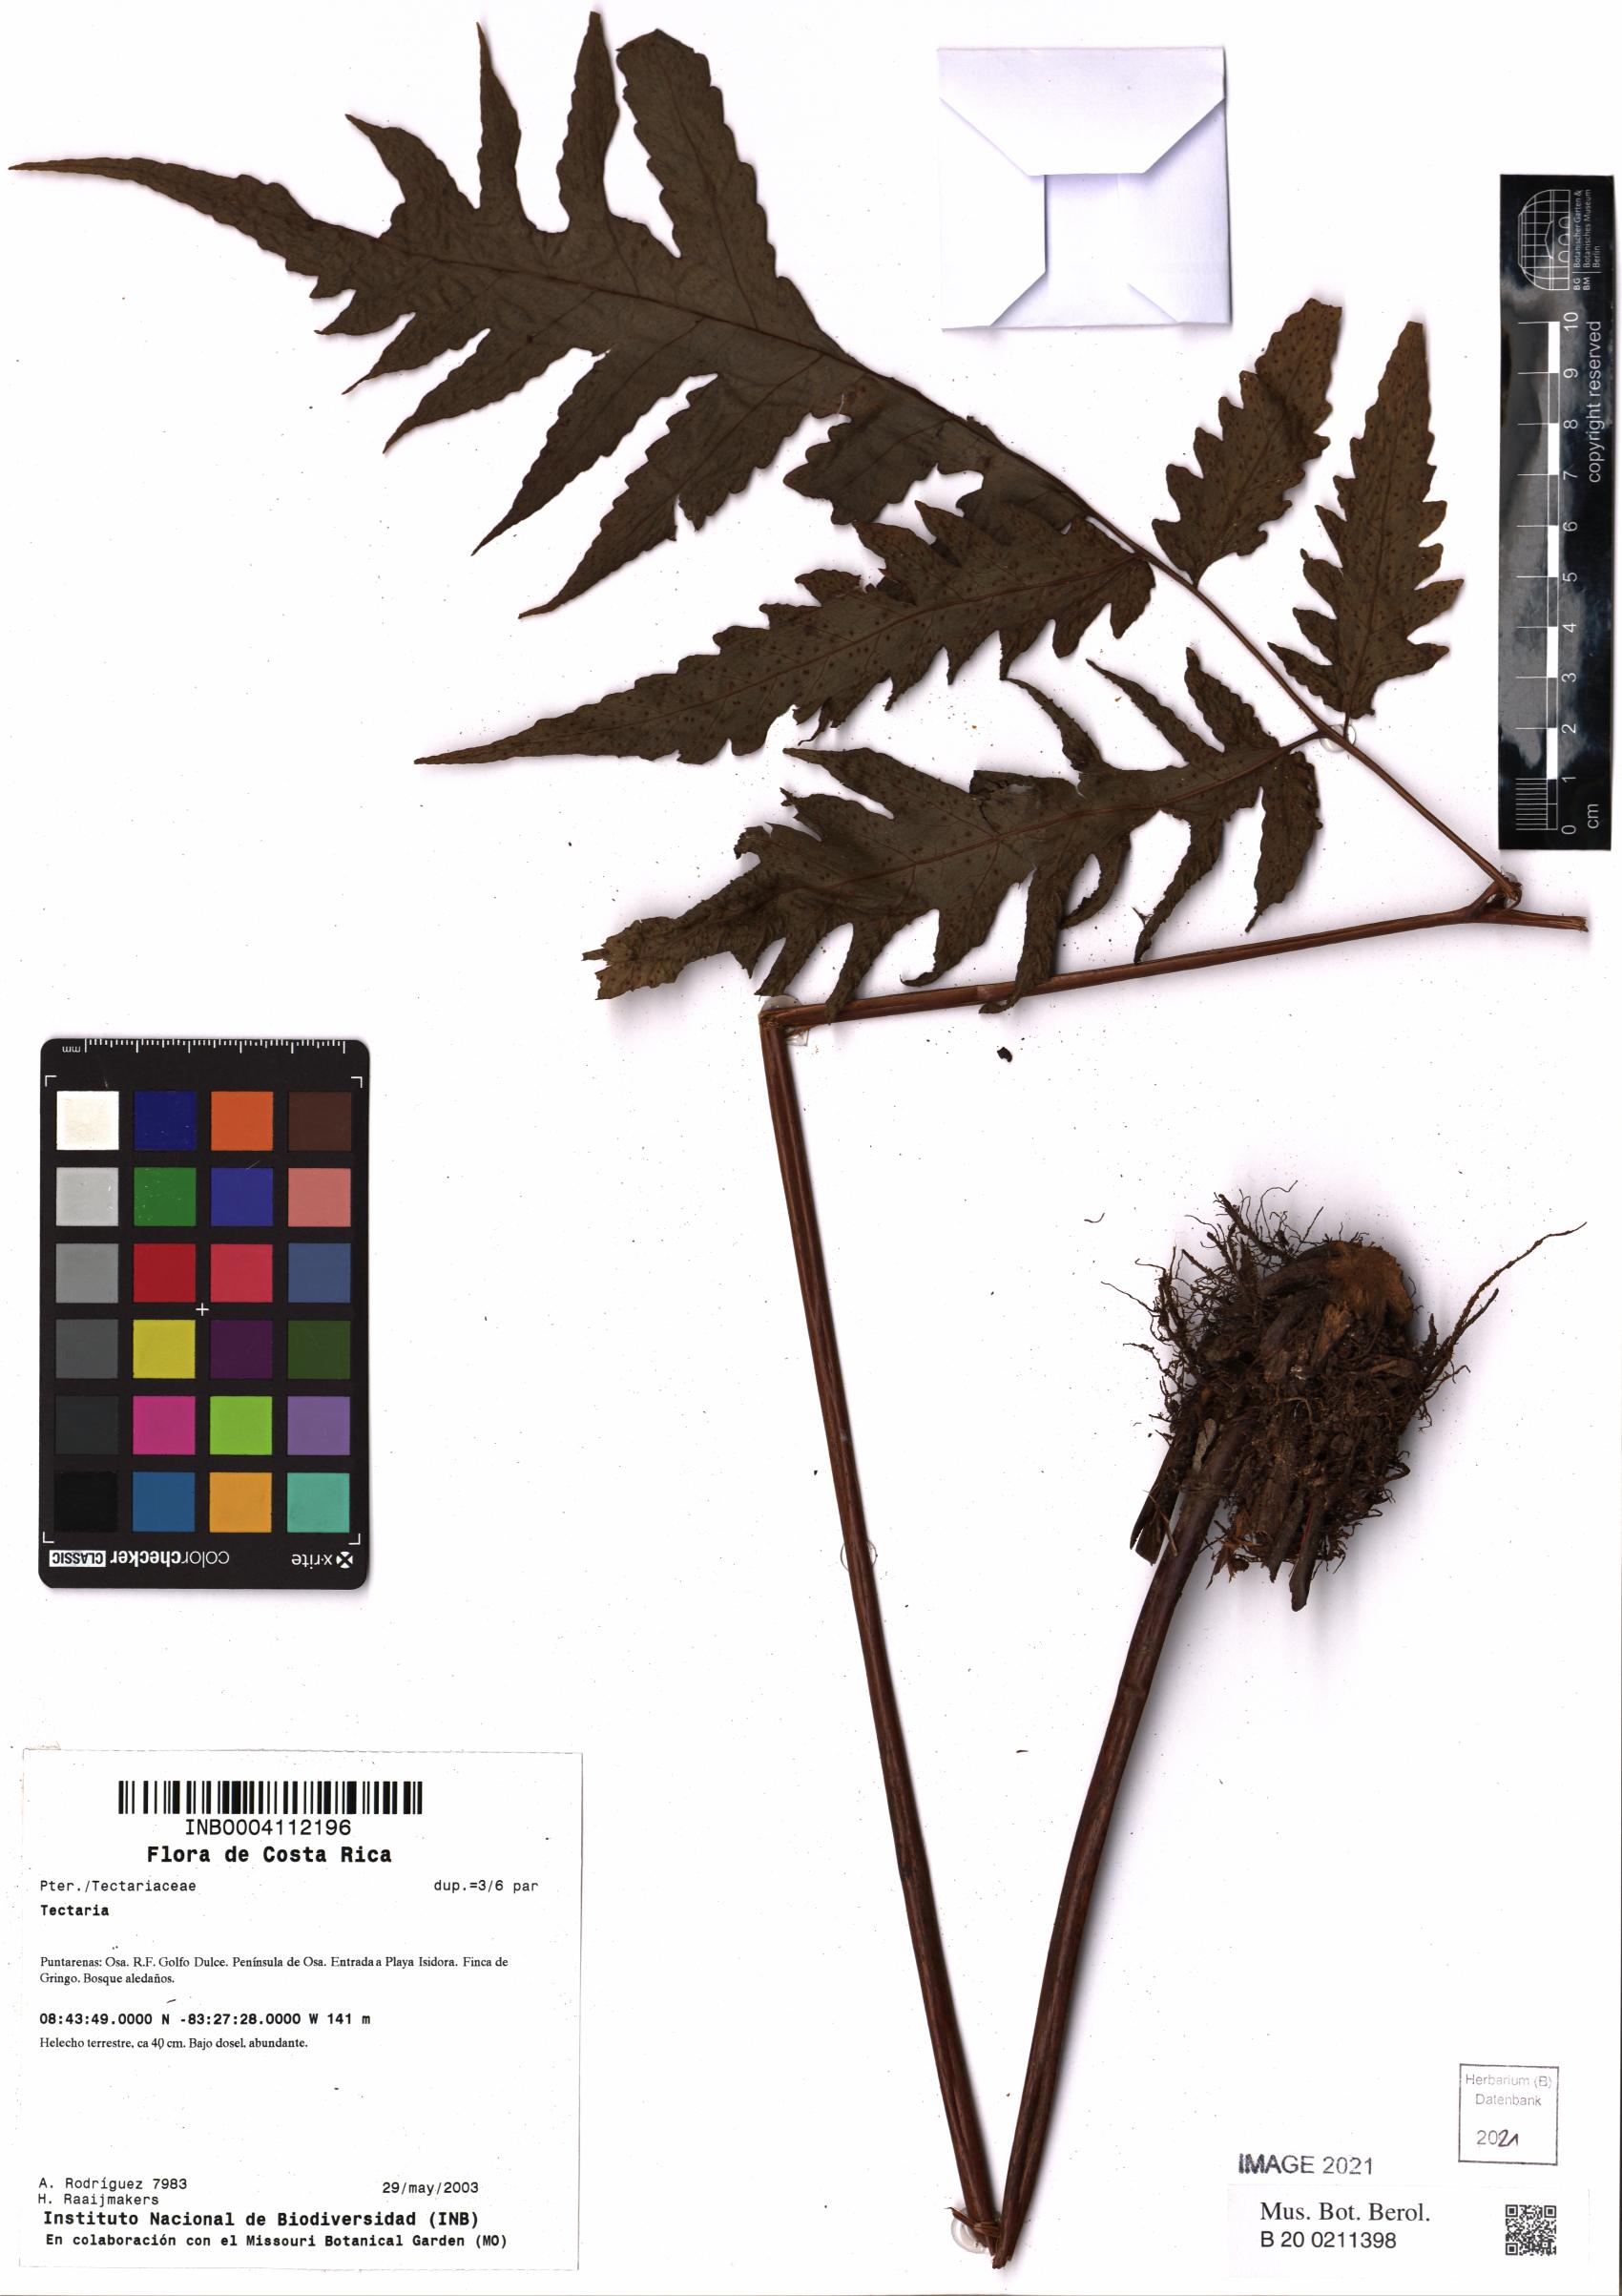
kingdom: Plantae
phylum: Tracheophyta
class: Polypodiopsida
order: Polypodiales
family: Tectariaceae
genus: Tectaria
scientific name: Tectaria
